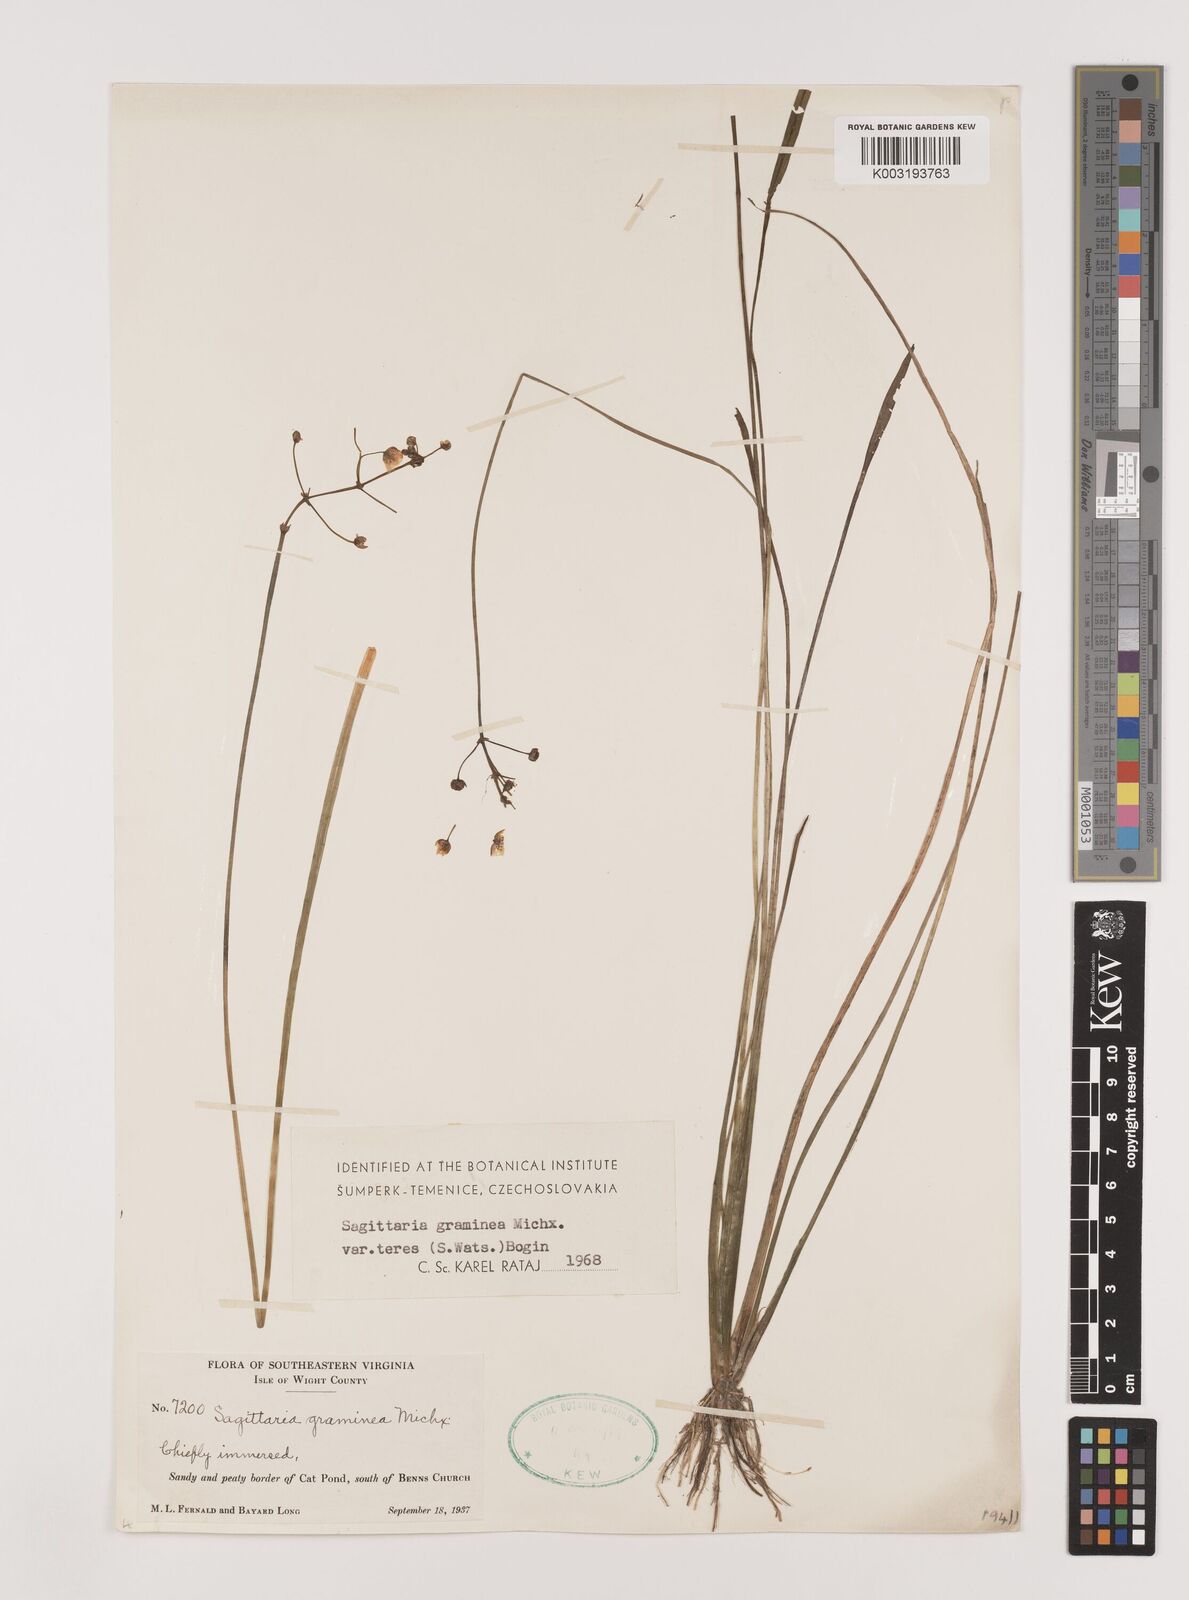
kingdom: Plantae
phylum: Tracheophyta
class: Liliopsida
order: Alismatales
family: Alismataceae
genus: Sagittaria
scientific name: Sagittaria teres
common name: Quill-leaf sagittaria
